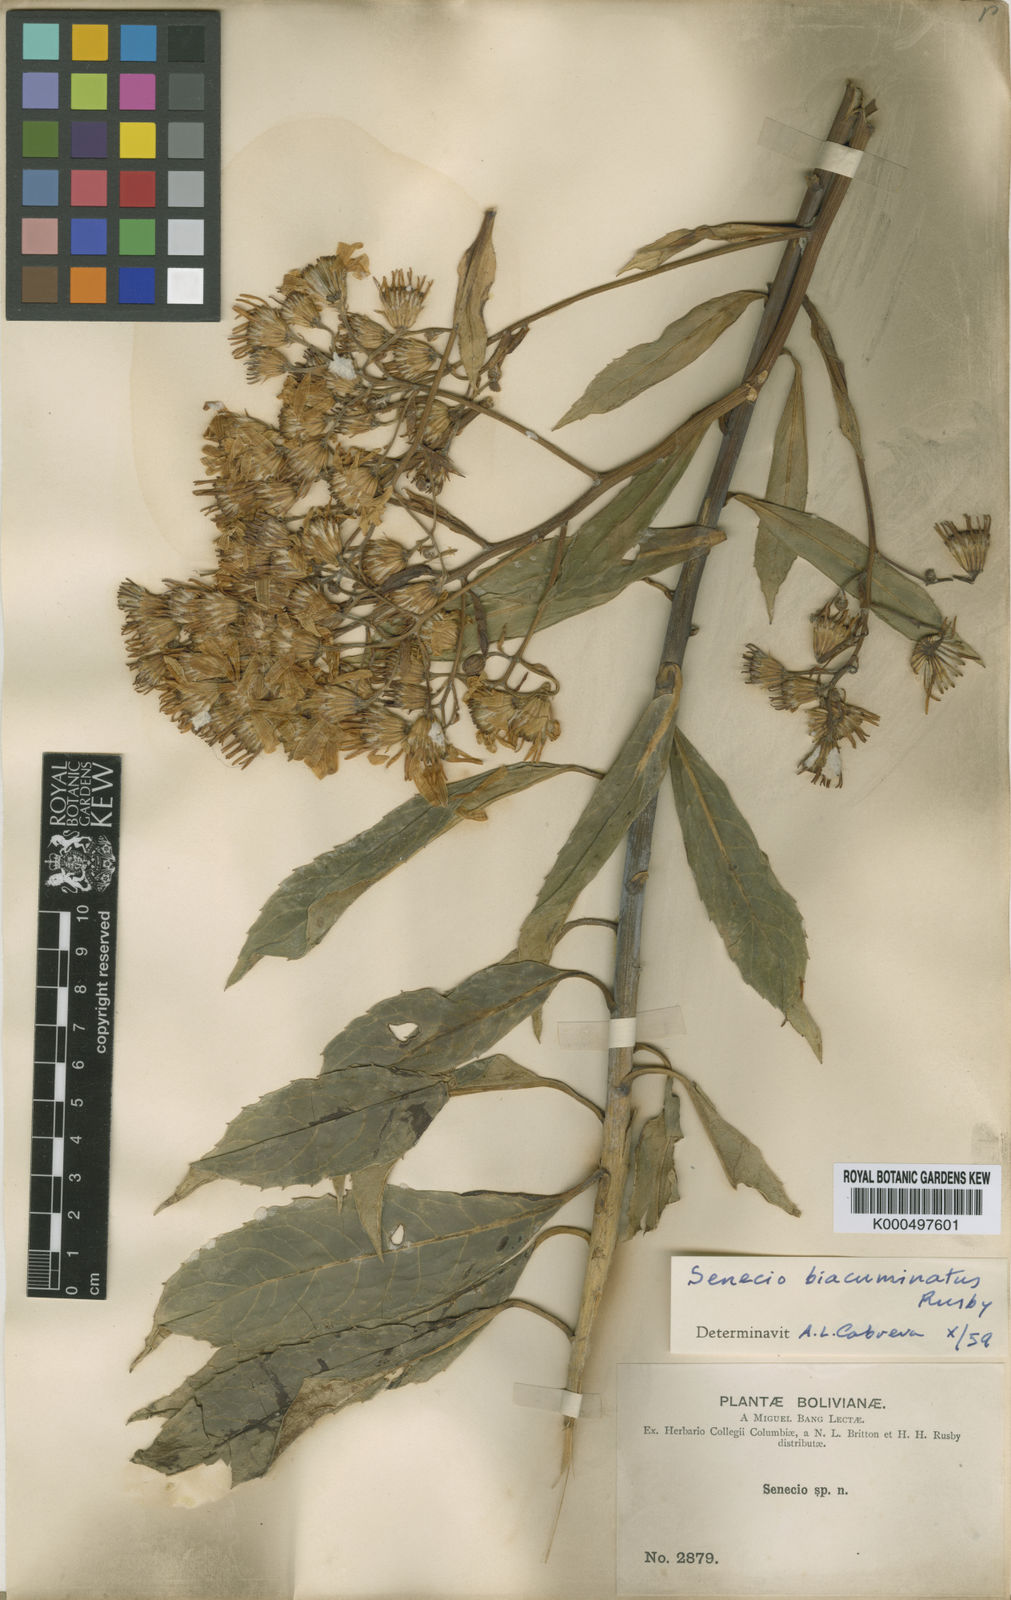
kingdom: Plantae
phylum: Tracheophyta
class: Magnoliopsida
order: Asterales
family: Asteraceae
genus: Dendrophorbium
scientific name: Dendrophorbium biacuminatum
